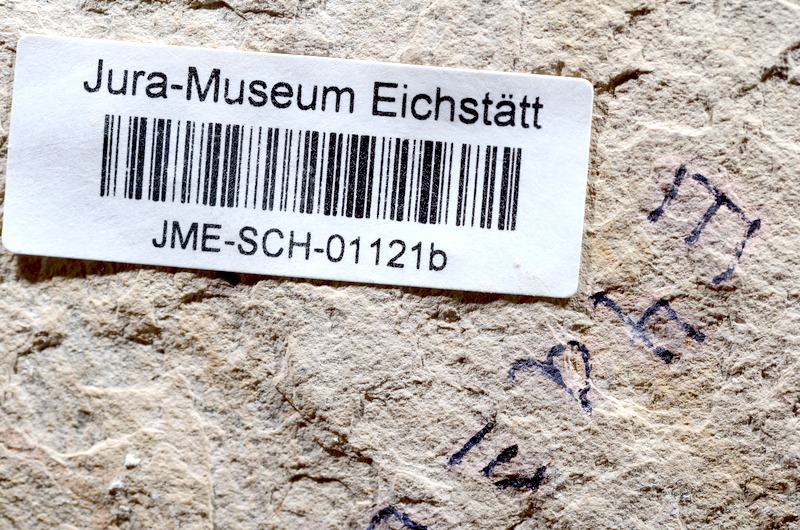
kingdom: Animalia
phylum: Chordata
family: Ascalaboidae
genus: Tharsis
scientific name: Tharsis dubius
